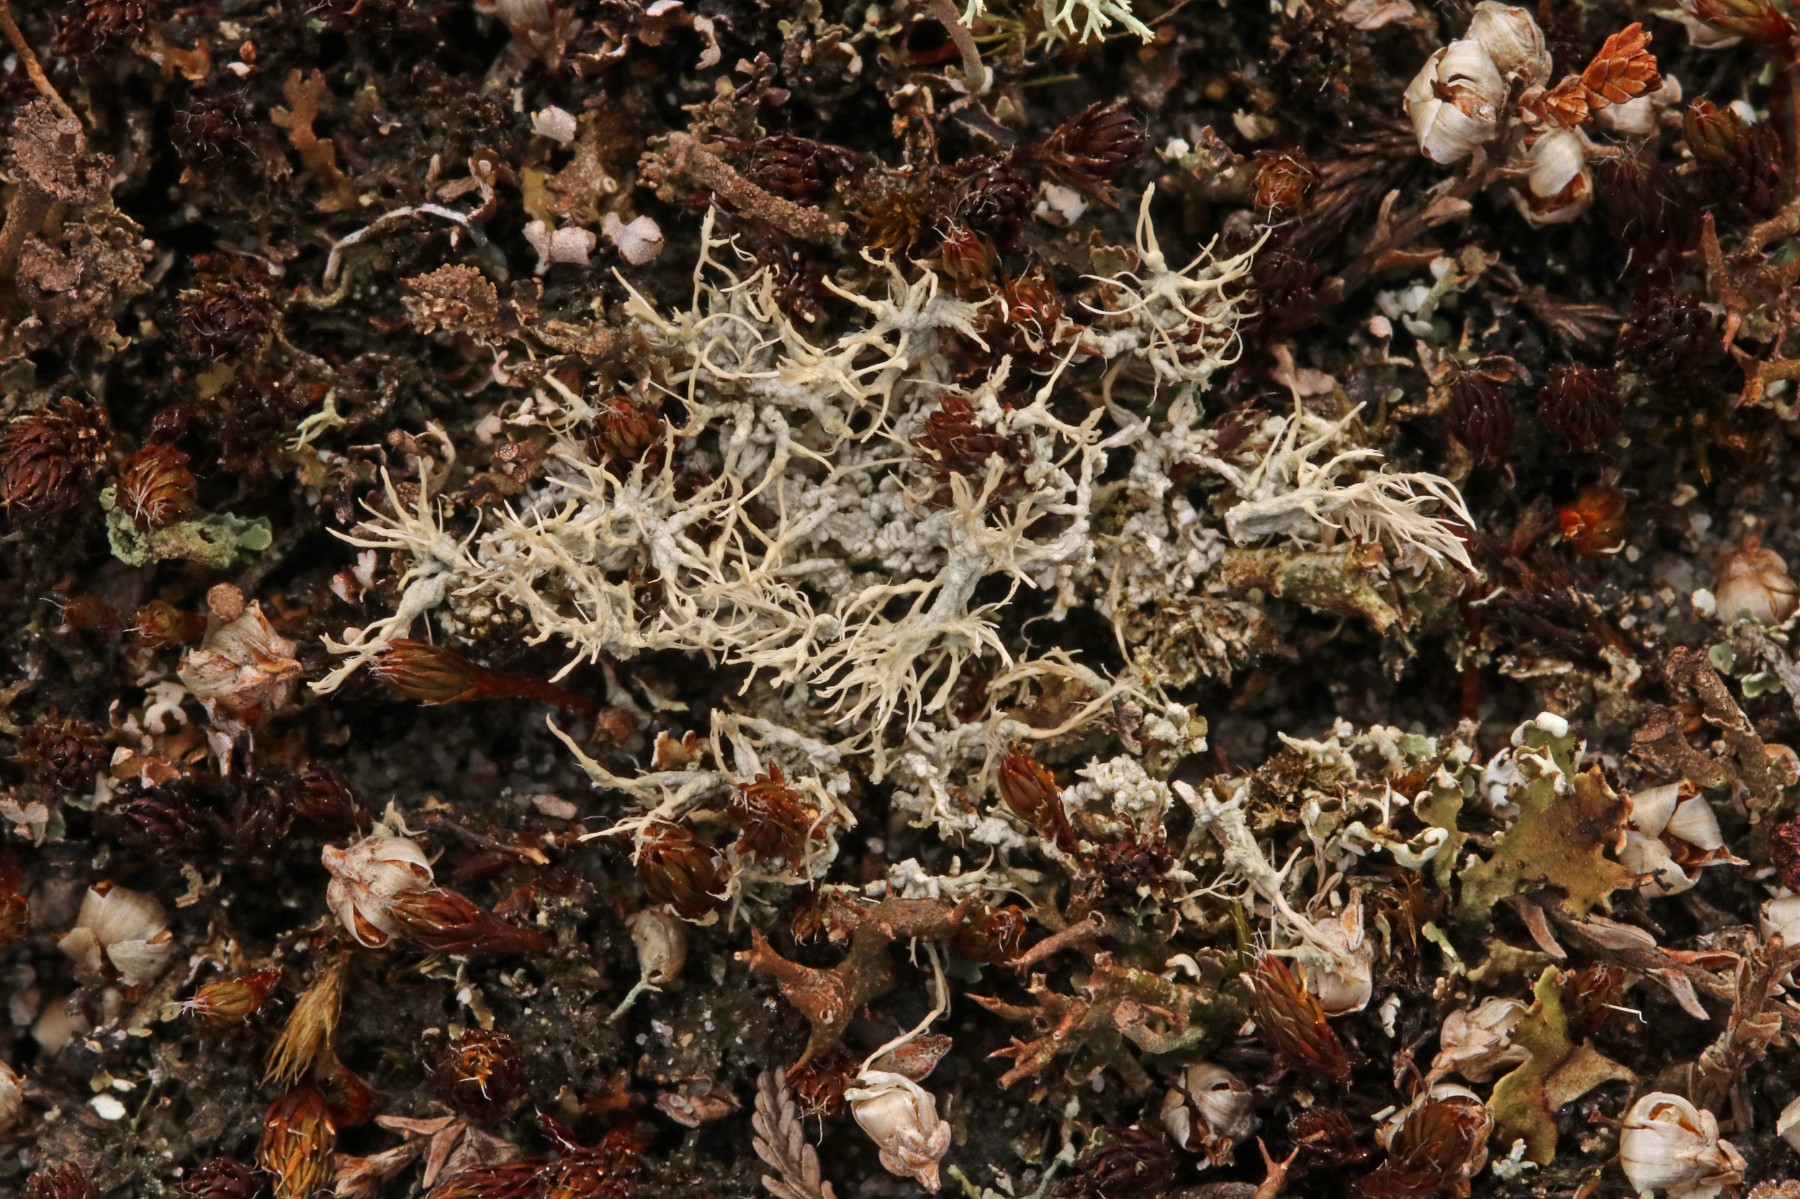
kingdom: Fungi
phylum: Ascomycota
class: Lecanoromycetes
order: Pertusariales
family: Ochrolechiaceae
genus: Ochrolechia
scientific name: Ochrolechia frigida
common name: fjeld-blegskivelav
